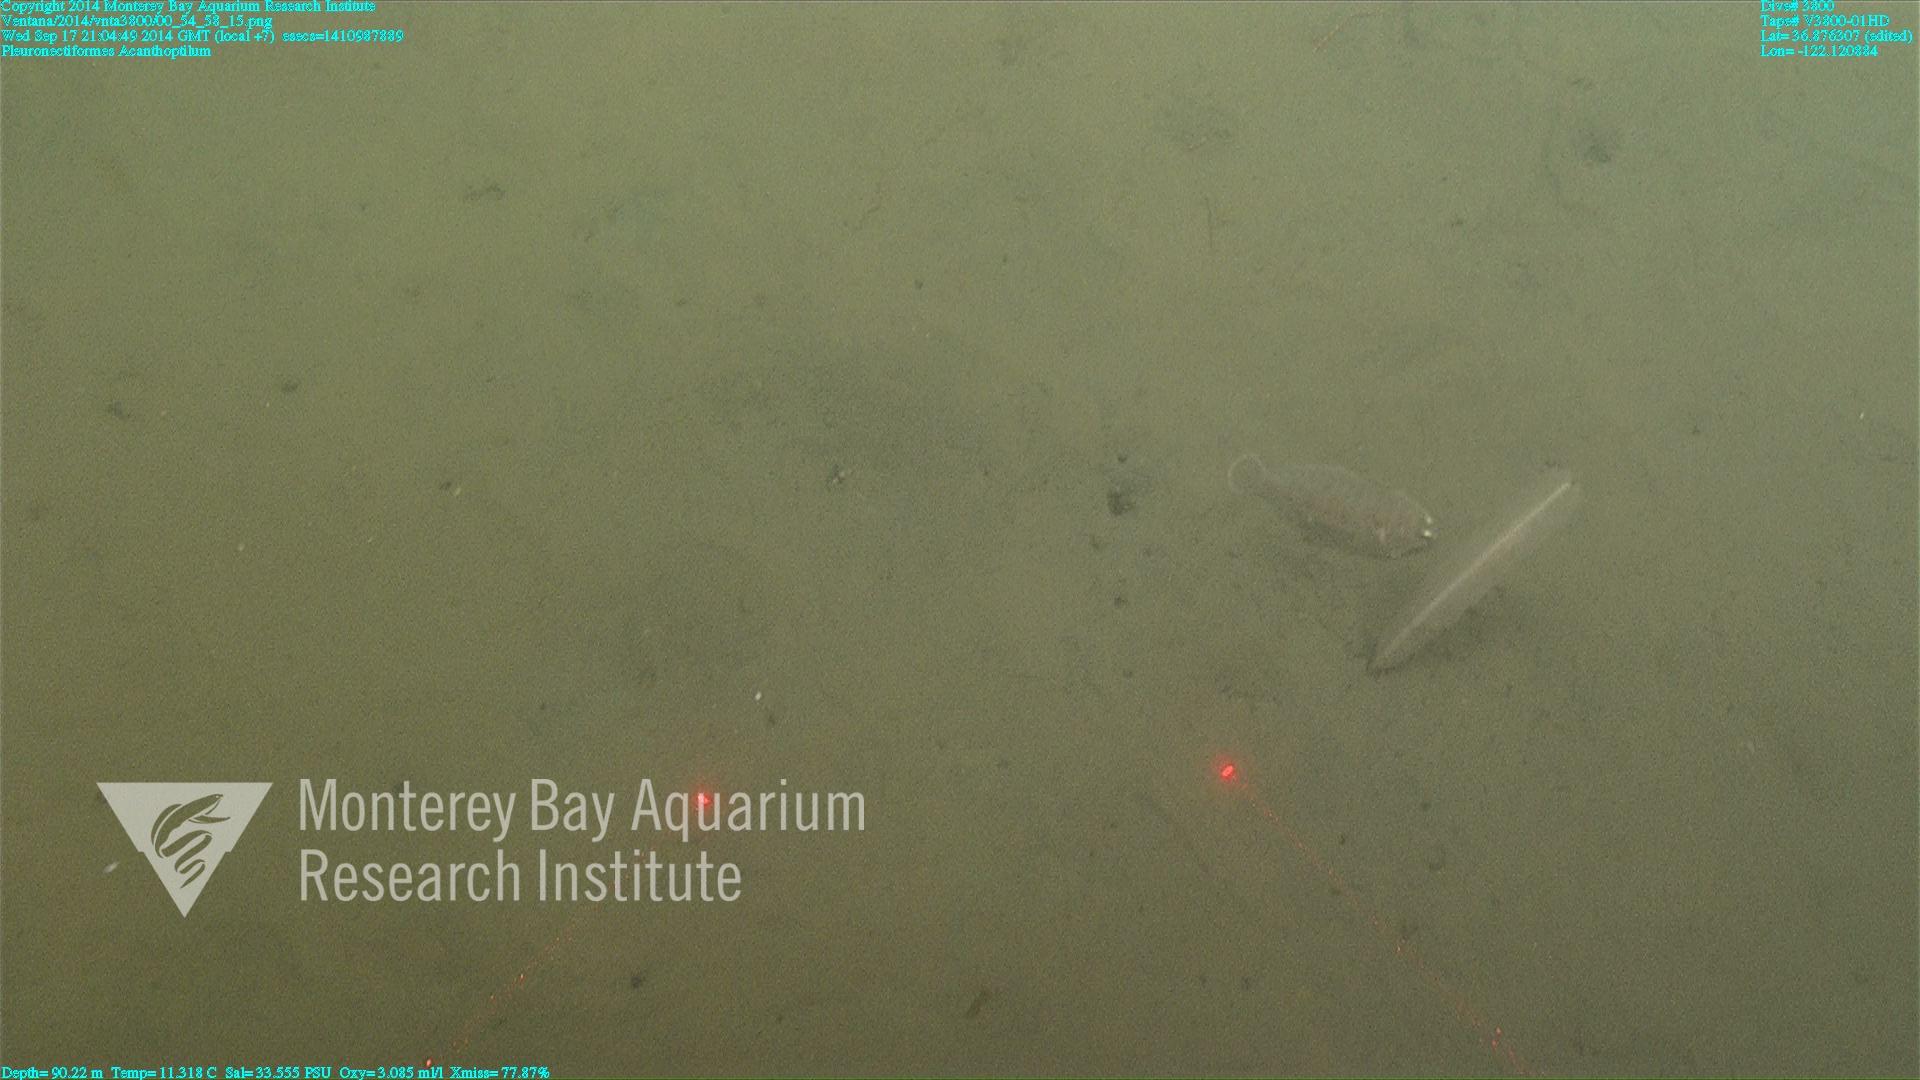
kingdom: Animalia
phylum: Cnidaria
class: Anthozoa
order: Scleralcyonacea
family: Virgulariidae
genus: Acanthoptilum
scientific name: Acanthoptilum
